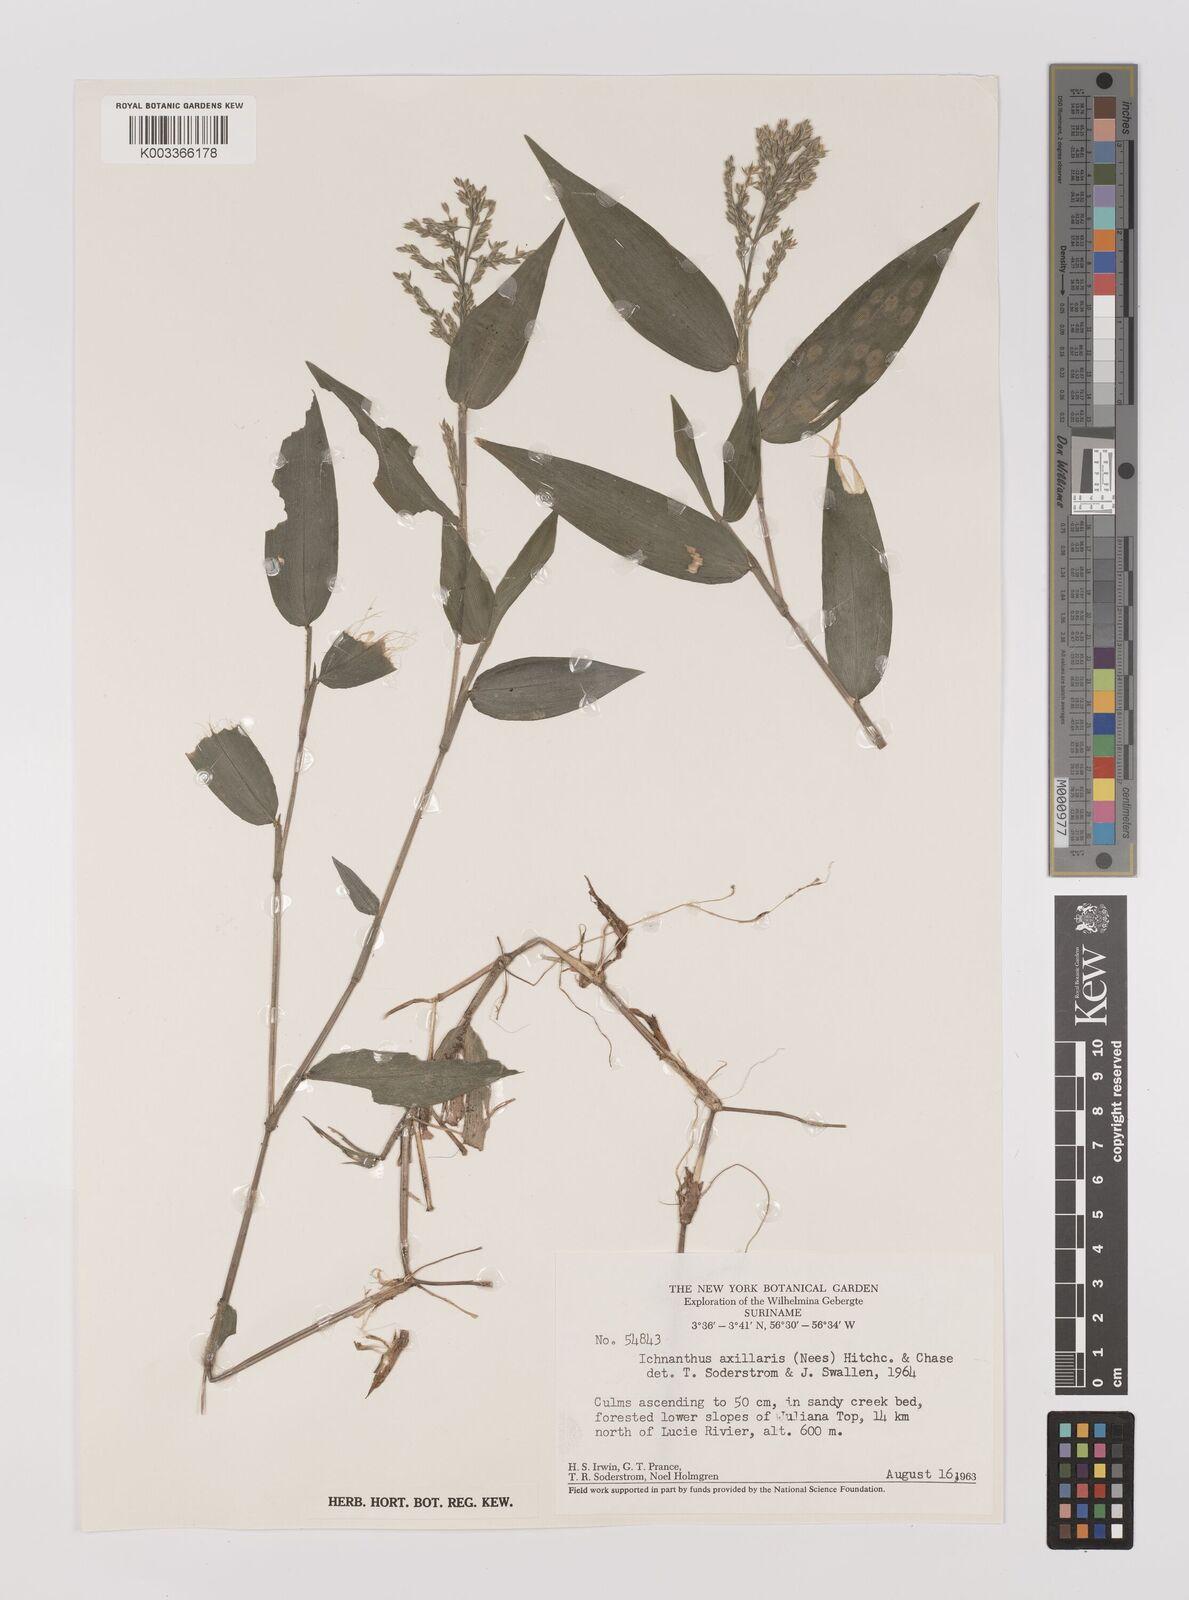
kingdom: Plantae
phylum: Tracheophyta
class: Liliopsida
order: Poales
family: Poaceae
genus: Ichnanthus
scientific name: Ichnanthus pallens
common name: Water grass
